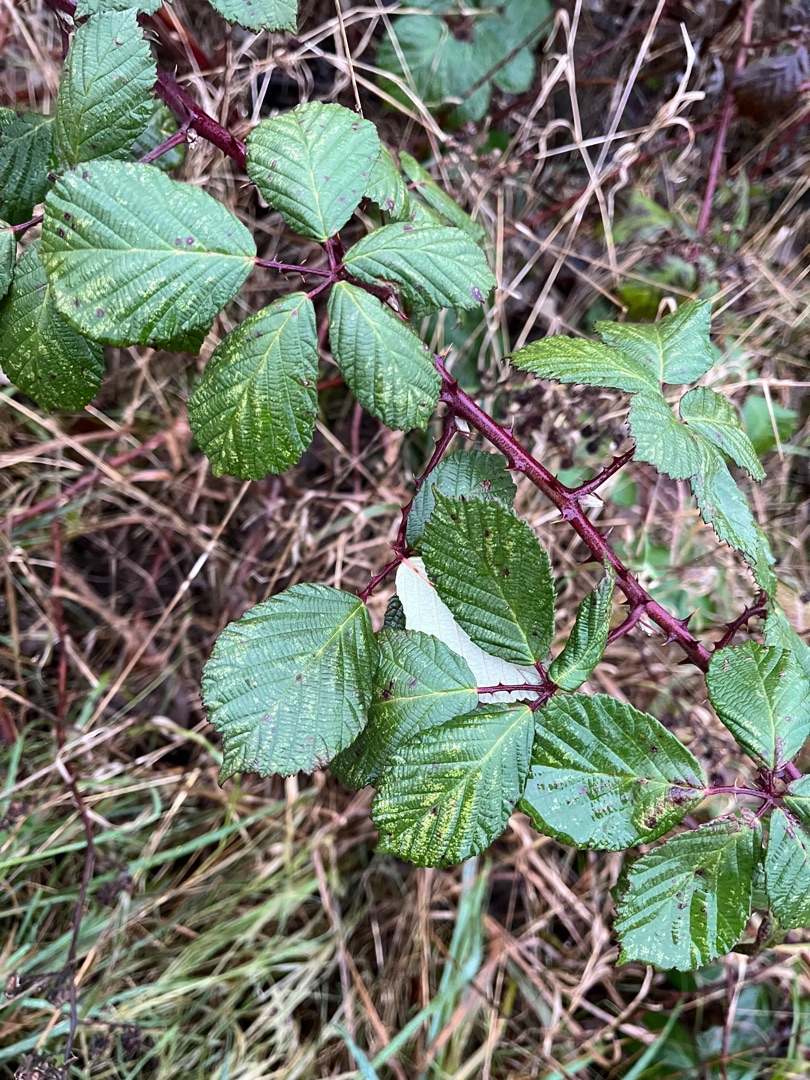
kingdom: Plantae
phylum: Tracheophyta
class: Magnoliopsida
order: Rosales
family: Rosaceae
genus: Rubus
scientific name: Rubus armeniacus
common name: Armensk brombær
